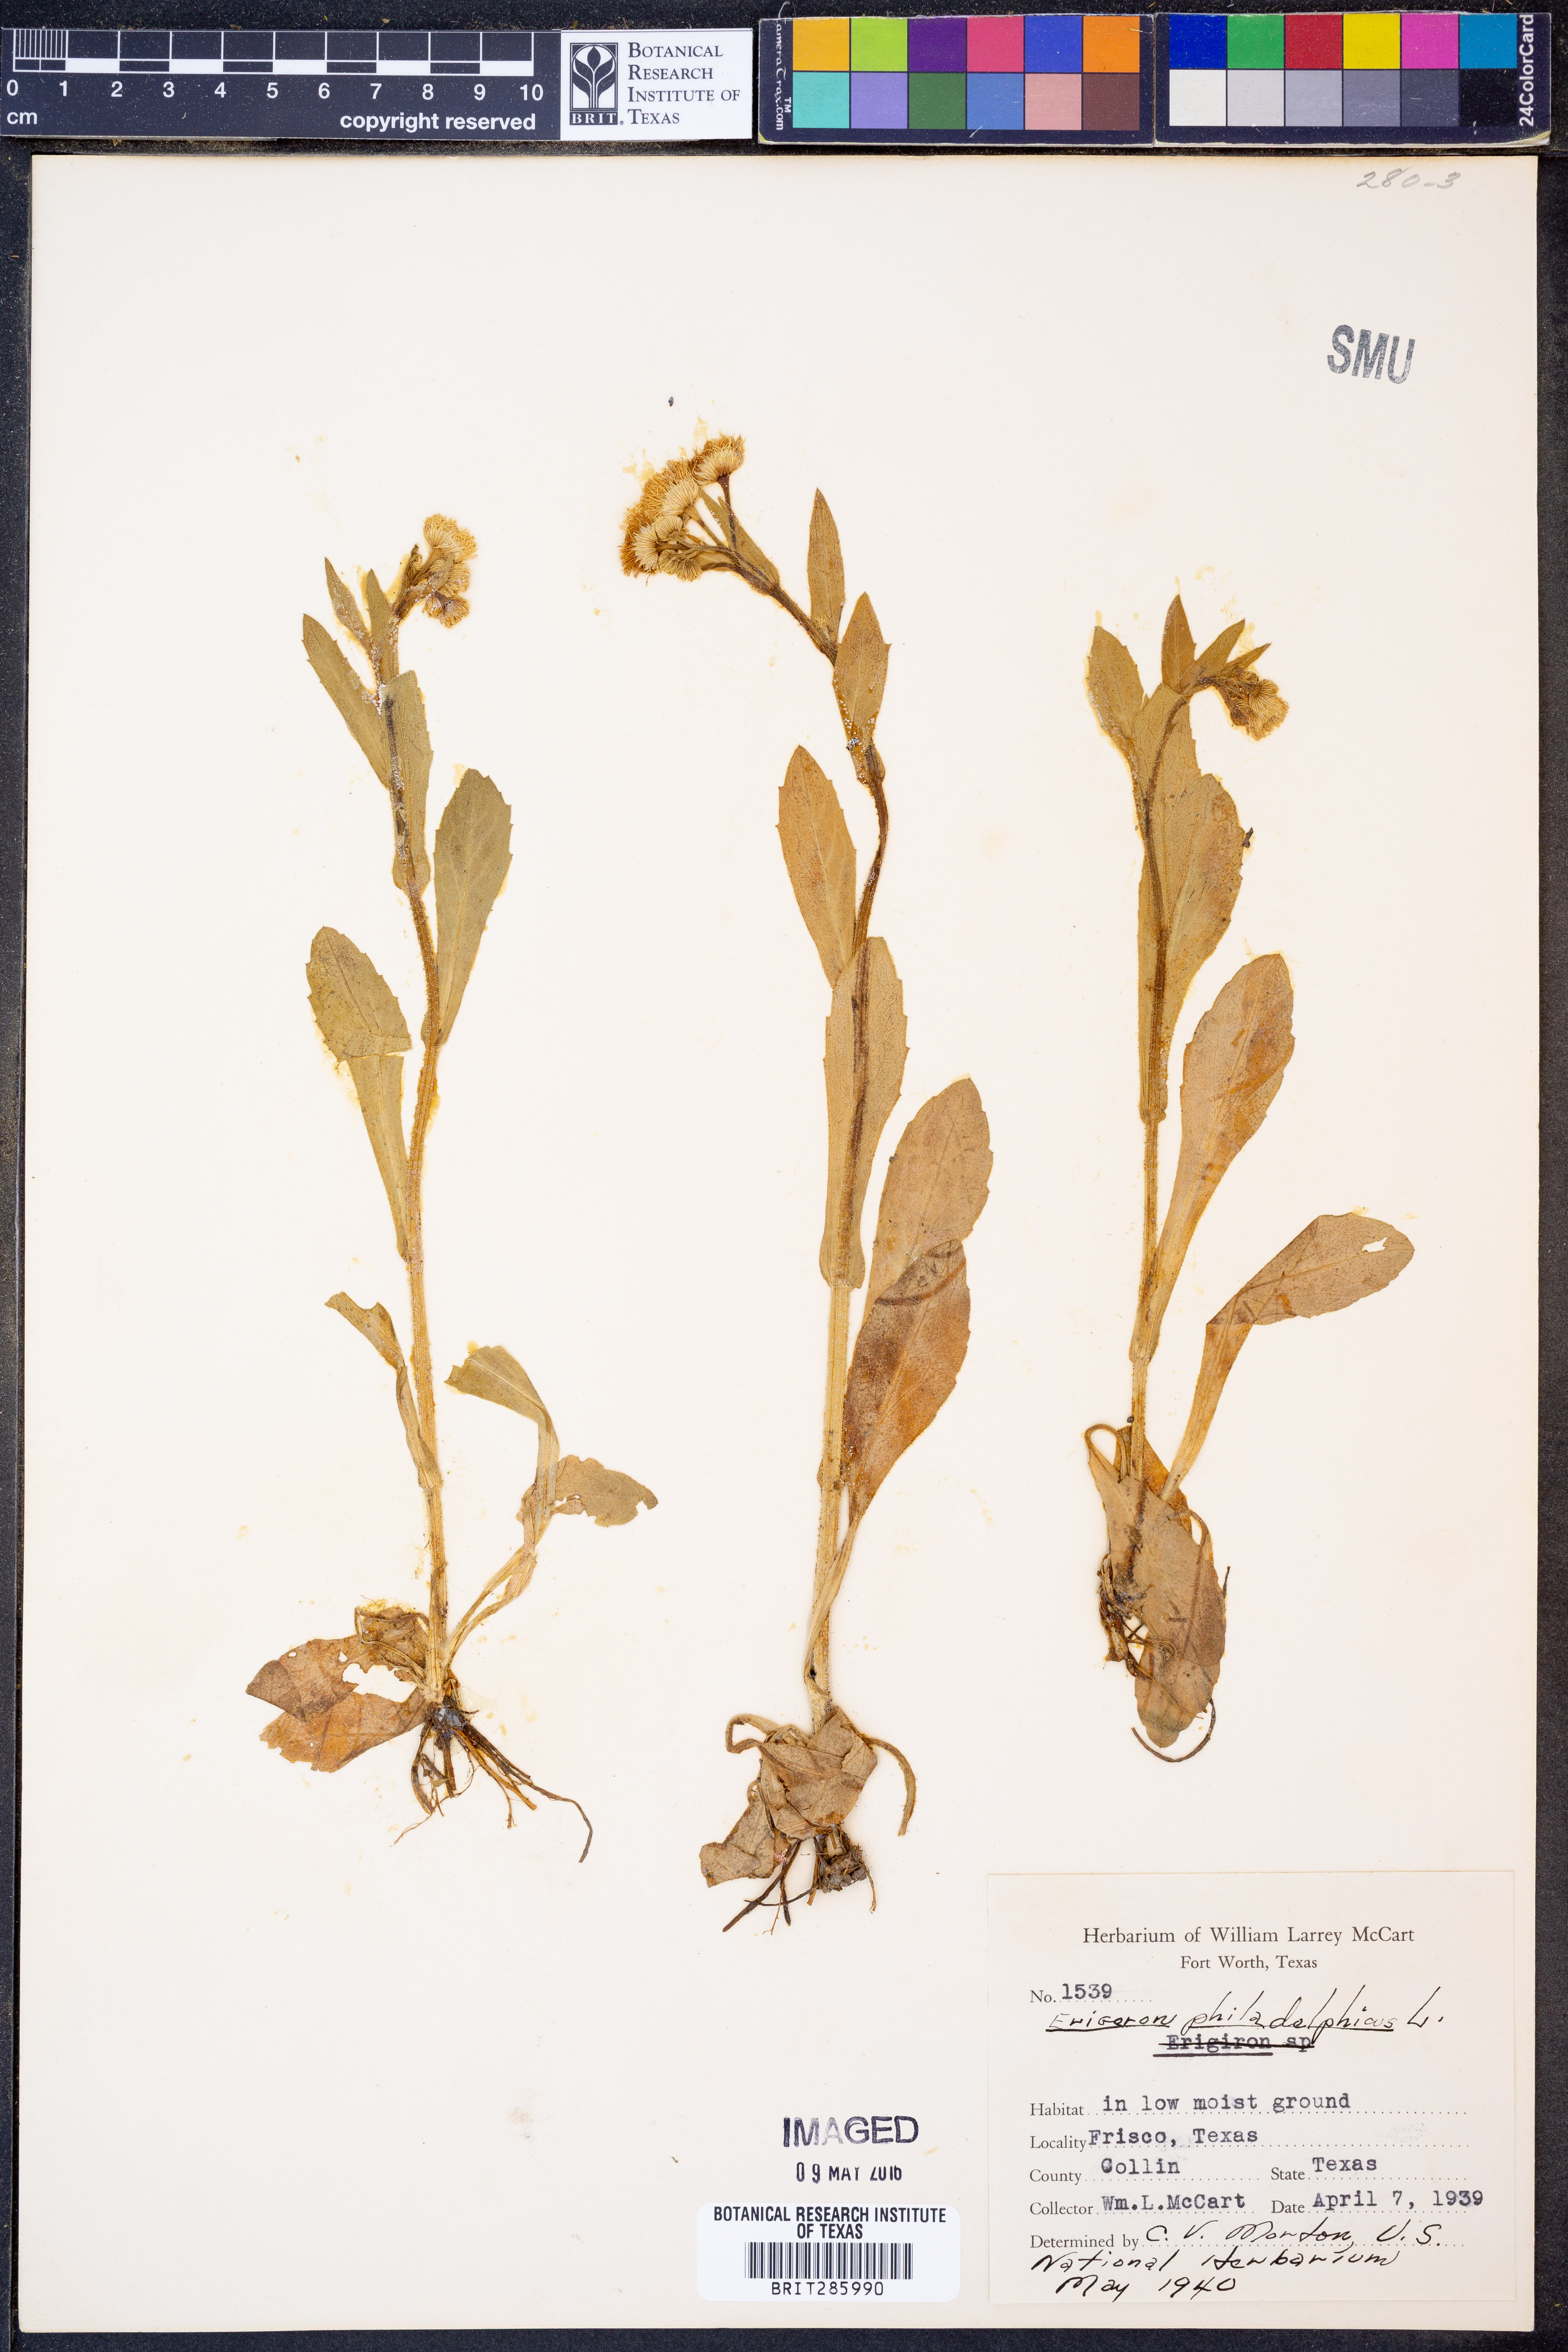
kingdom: Plantae
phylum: Tracheophyta
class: Magnoliopsida
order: Asterales
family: Asteraceae
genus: Erigeron
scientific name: Erigeron philadelphicus
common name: Robin's-plantain
